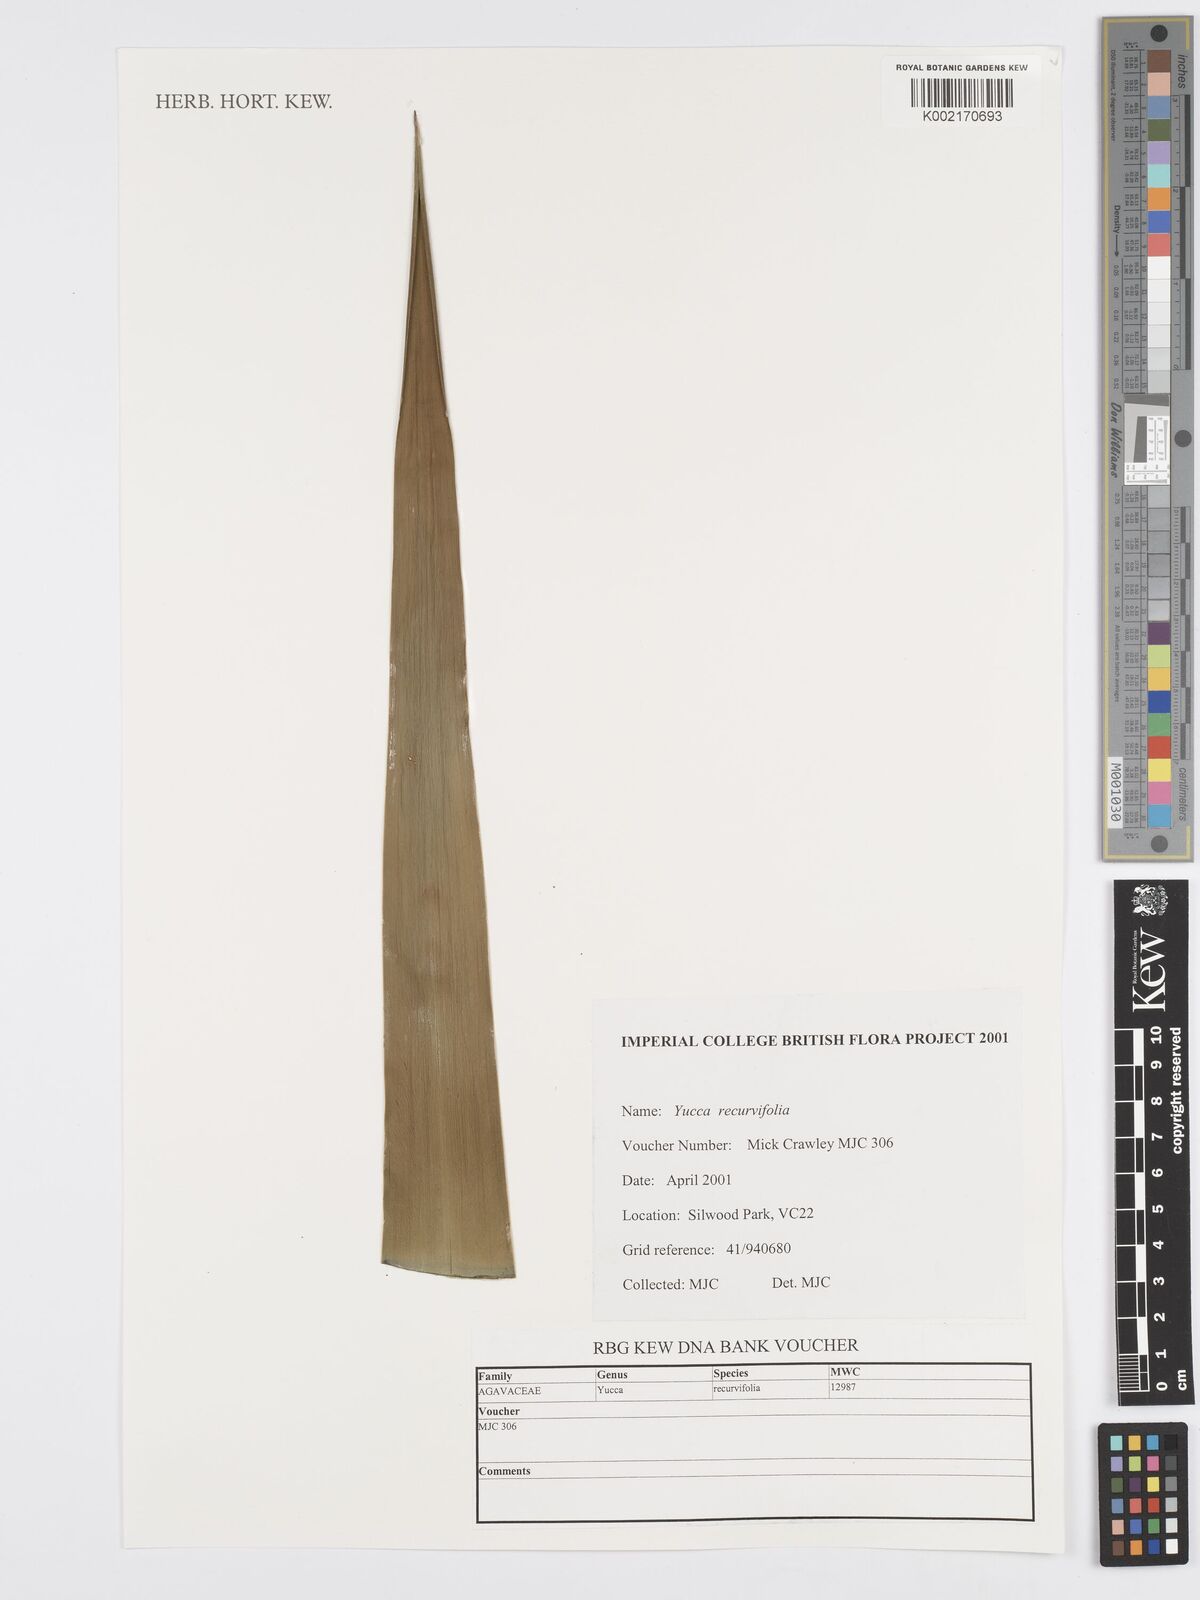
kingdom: Plantae
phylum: Tracheophyta
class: Liliopsida
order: Asparagales
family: Asparagaceae
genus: Yucca
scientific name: Yucca gloriosa
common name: Spanish-dagger
